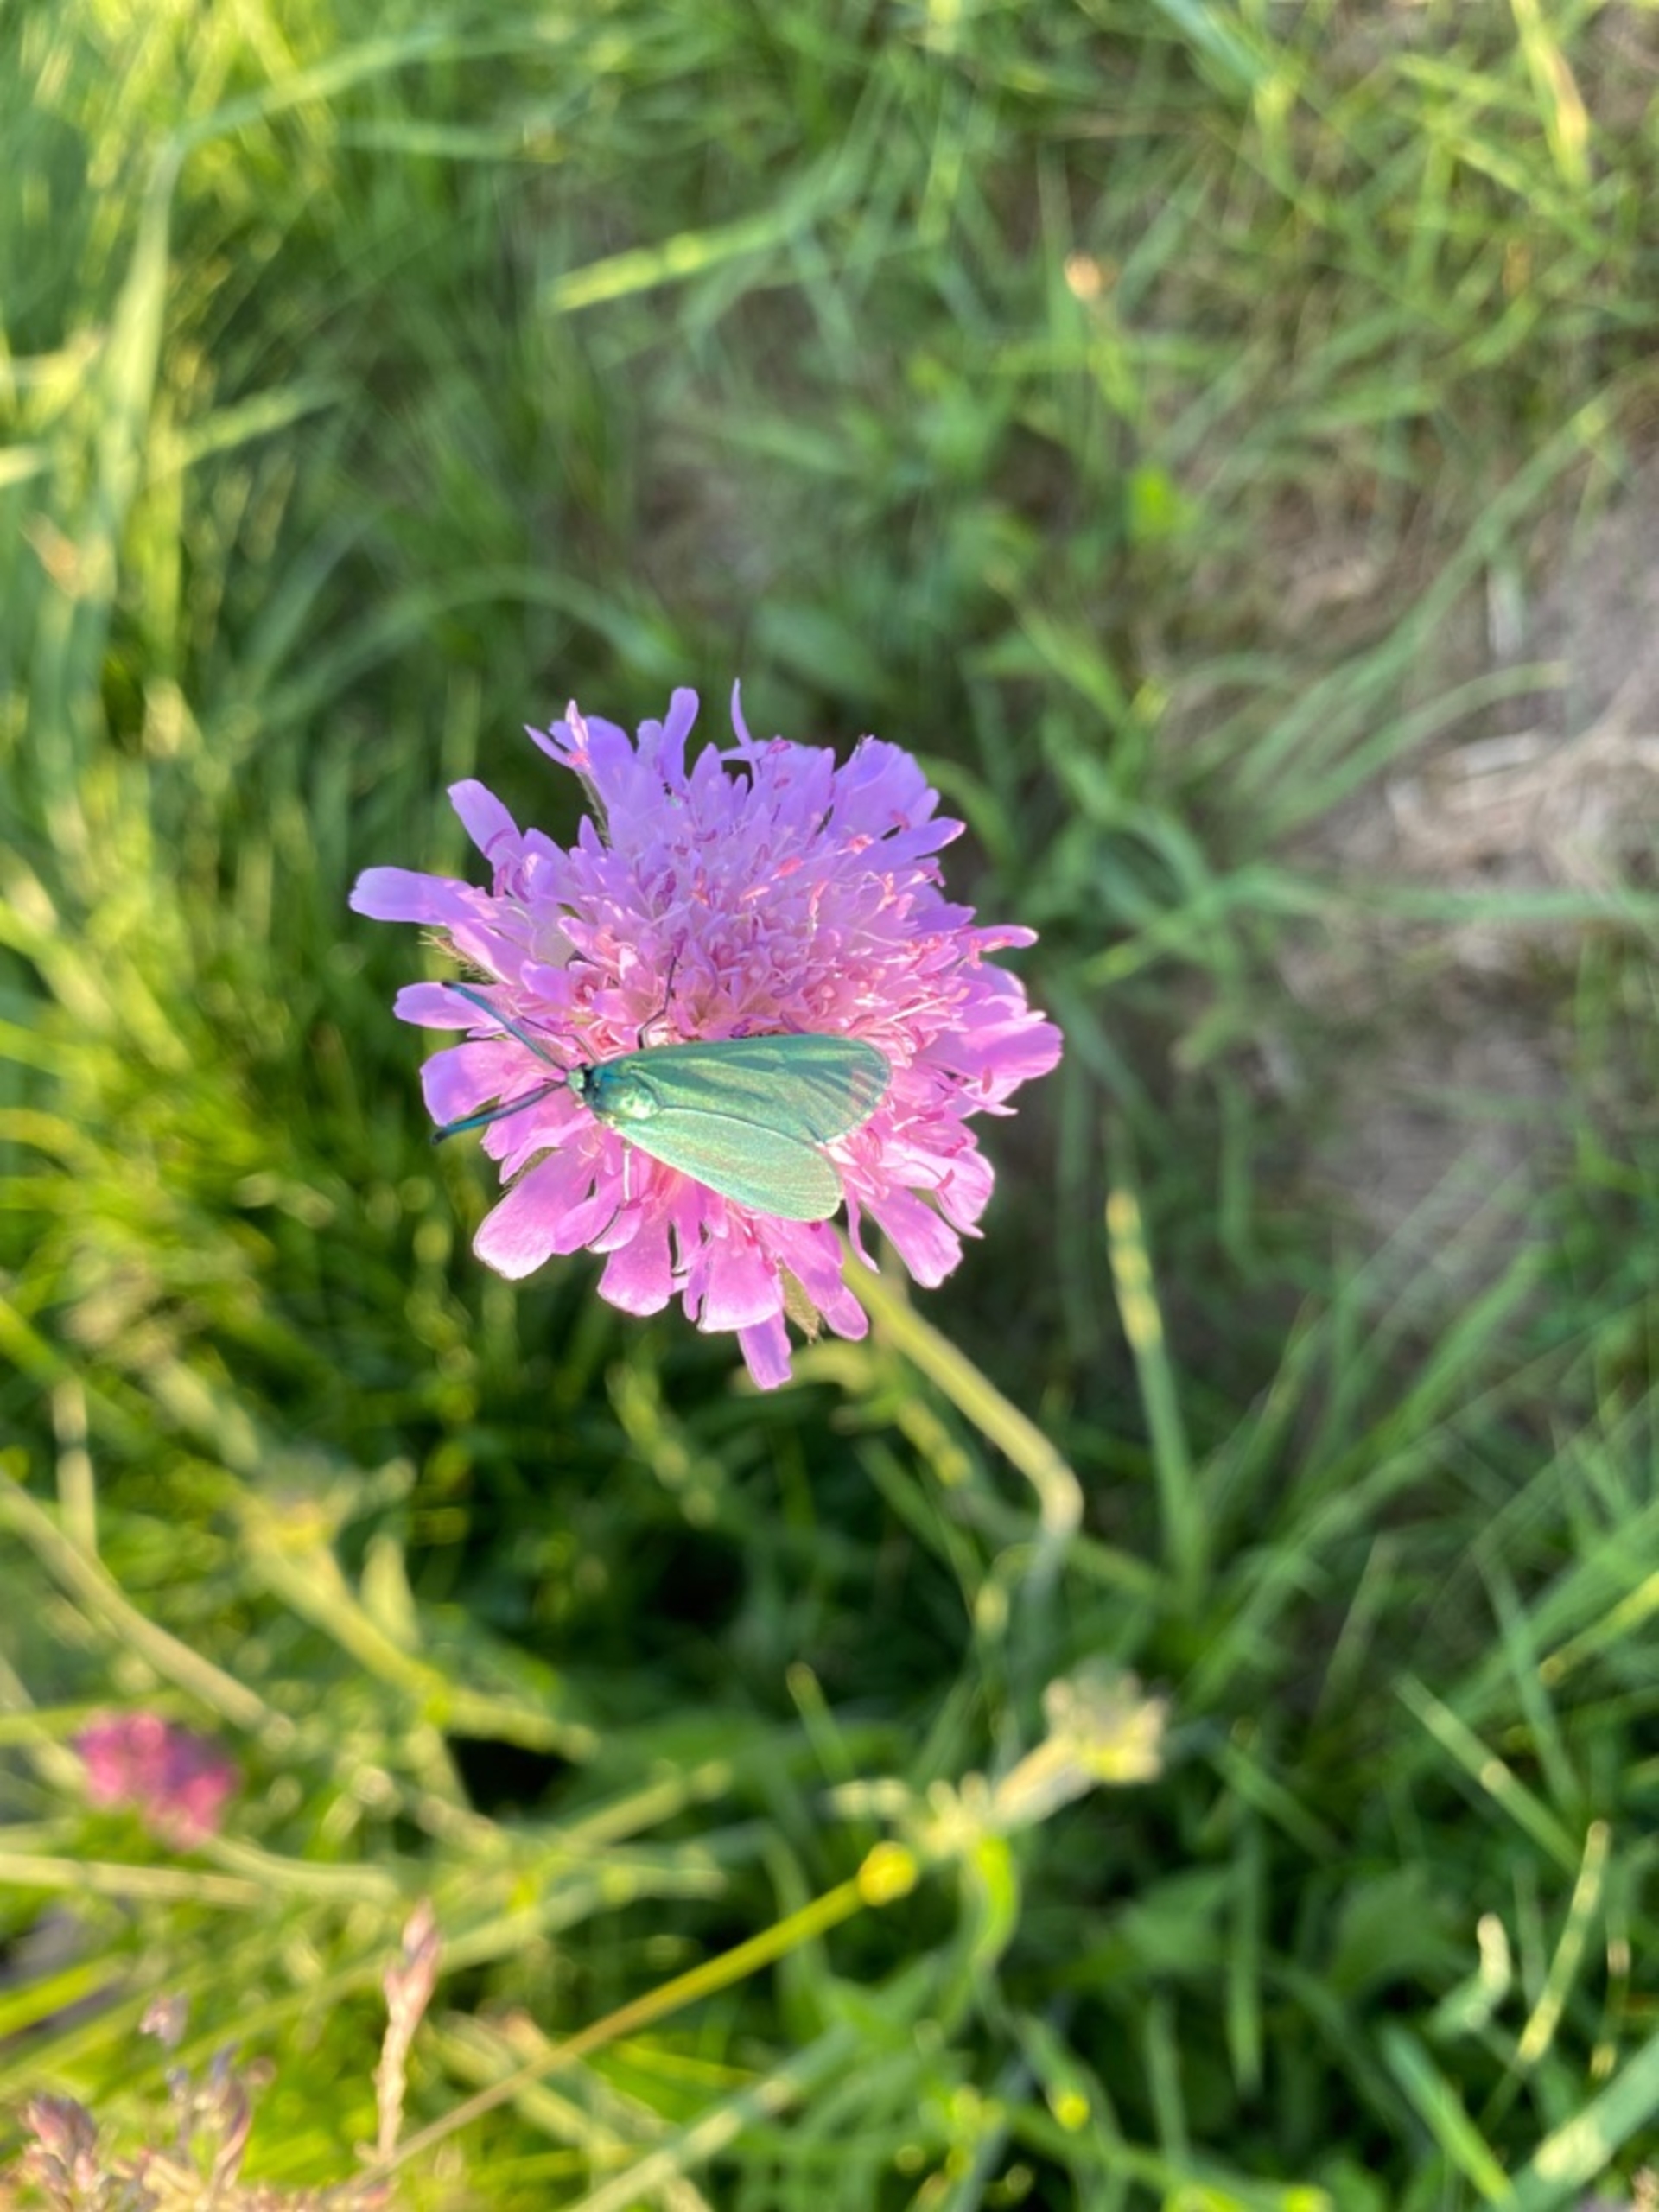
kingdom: Animalia
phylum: Arthropoda
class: Insecta
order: Lepidoptera
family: Zygaenidae
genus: Adscita
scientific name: Adscita statices
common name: Metalvinge
